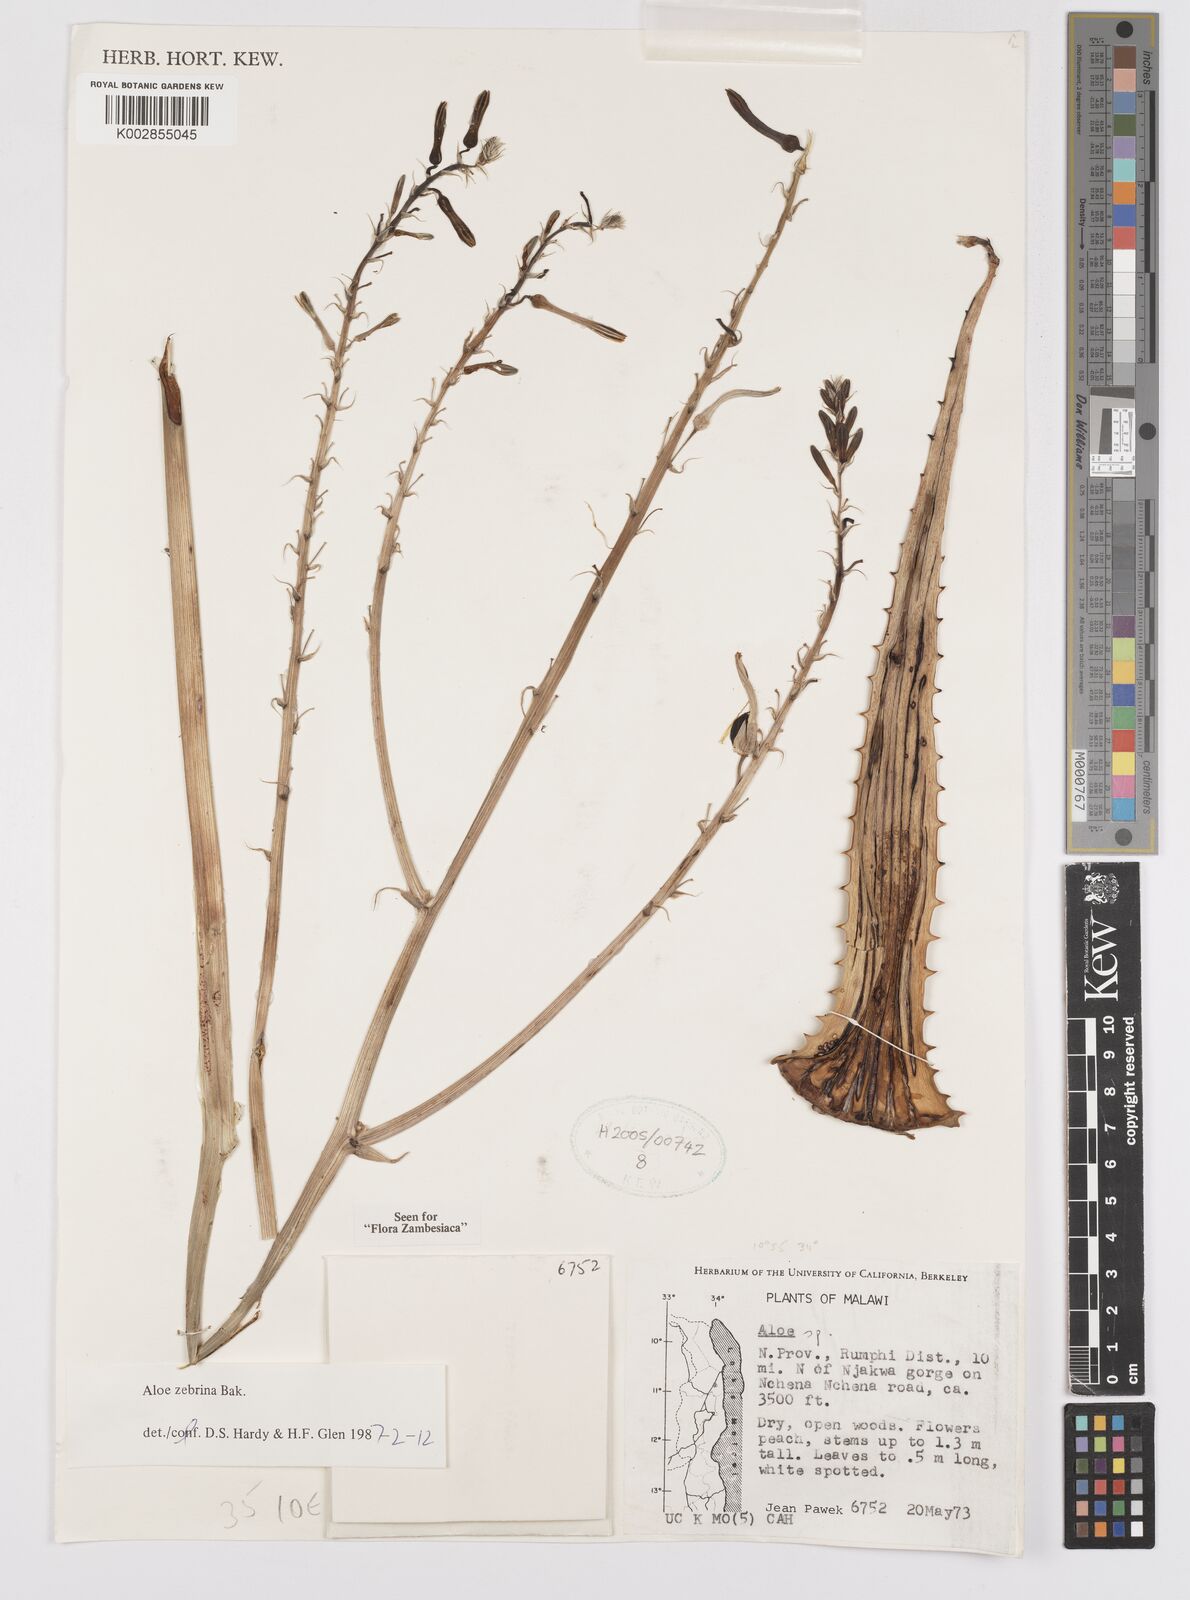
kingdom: Plantae
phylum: Tracheophyta
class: Liliopsida
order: Asparagales
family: Asphodelaceae
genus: Aloe
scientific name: Aloe zebrina
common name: Zebra-leaf aloe
